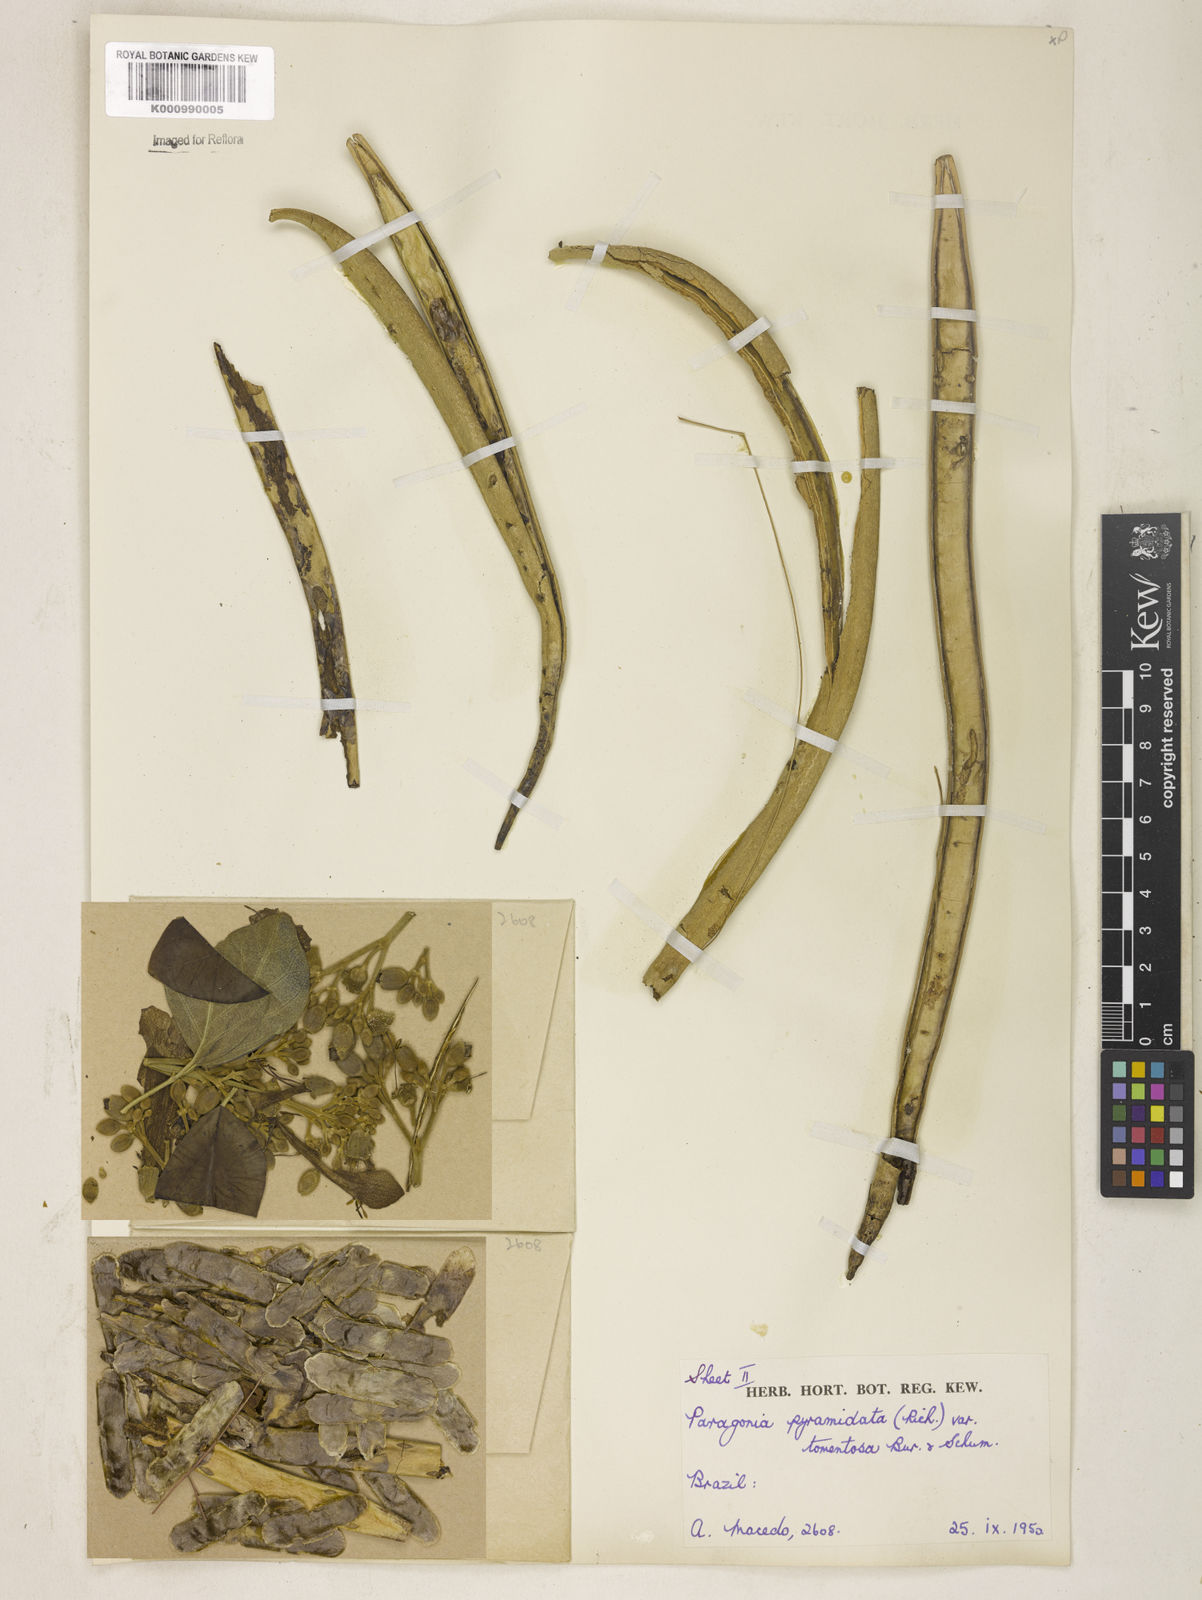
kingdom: Plantae
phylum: Tracheophyta
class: Magnoliopsida
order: Lamiales
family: Bignoniaceae
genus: Tanaecium
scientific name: Tanaecium pyramidatum
